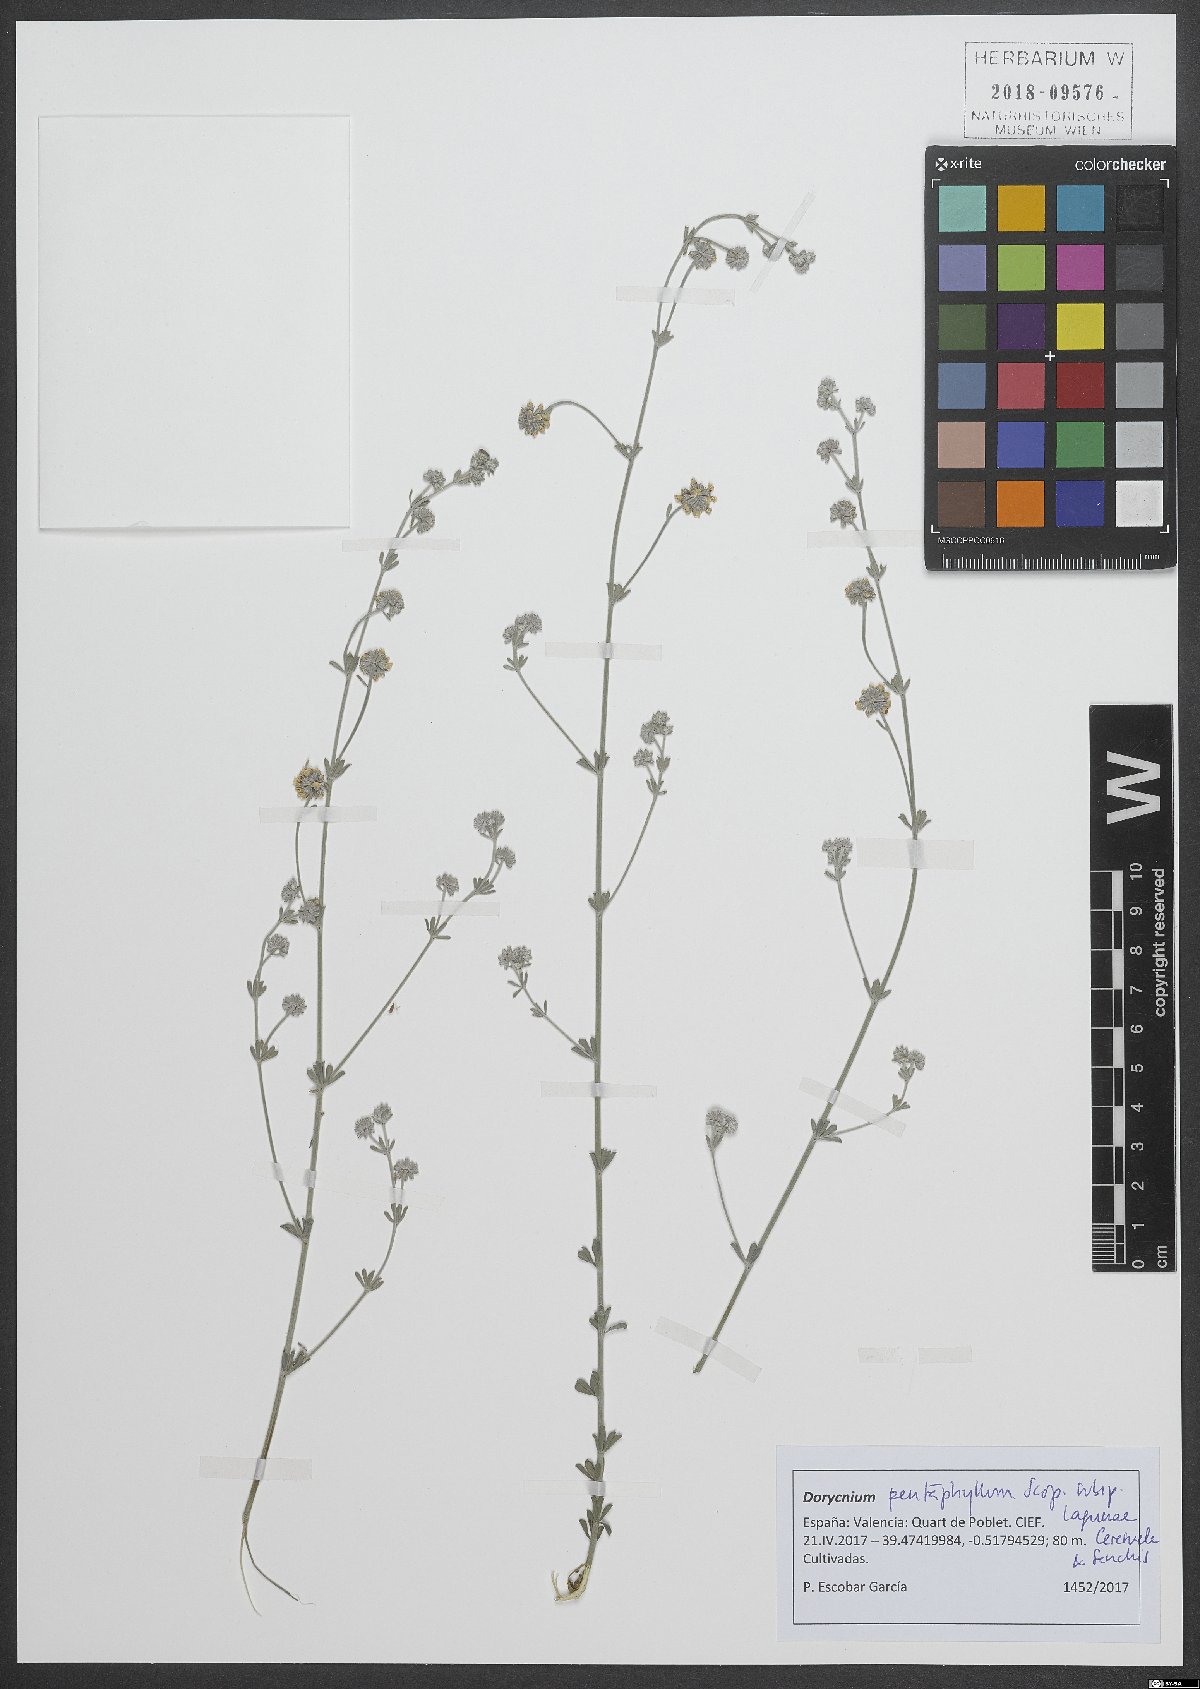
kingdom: Plantae
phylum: Tracheophyta
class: Magnoliopsida
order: Fabales
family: Fabaceae
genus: Lotus
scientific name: Lotus dorycnium
